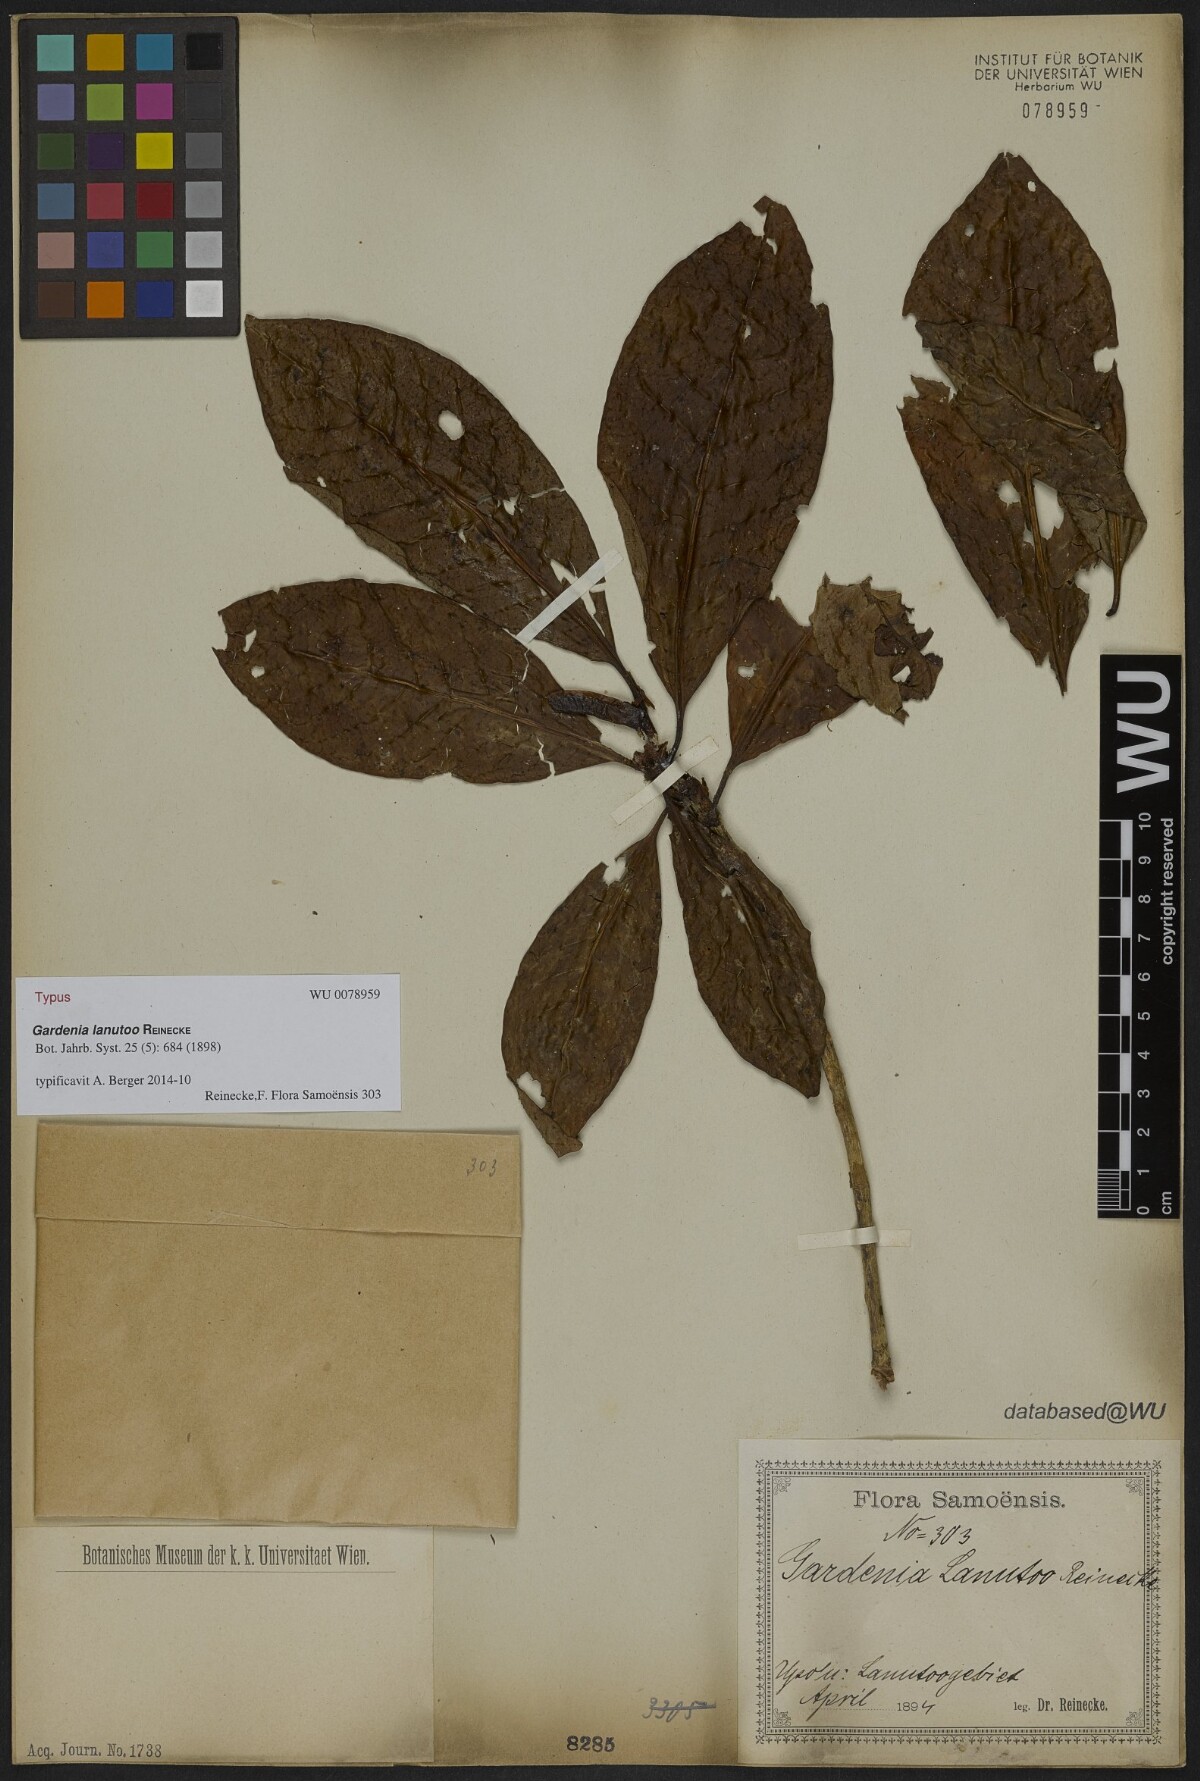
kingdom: Plantae
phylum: Tracheophyta
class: Magnoliopsida
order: Gentianales
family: Rubiaceae
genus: Gardenia
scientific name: Gardenia lanutoo
